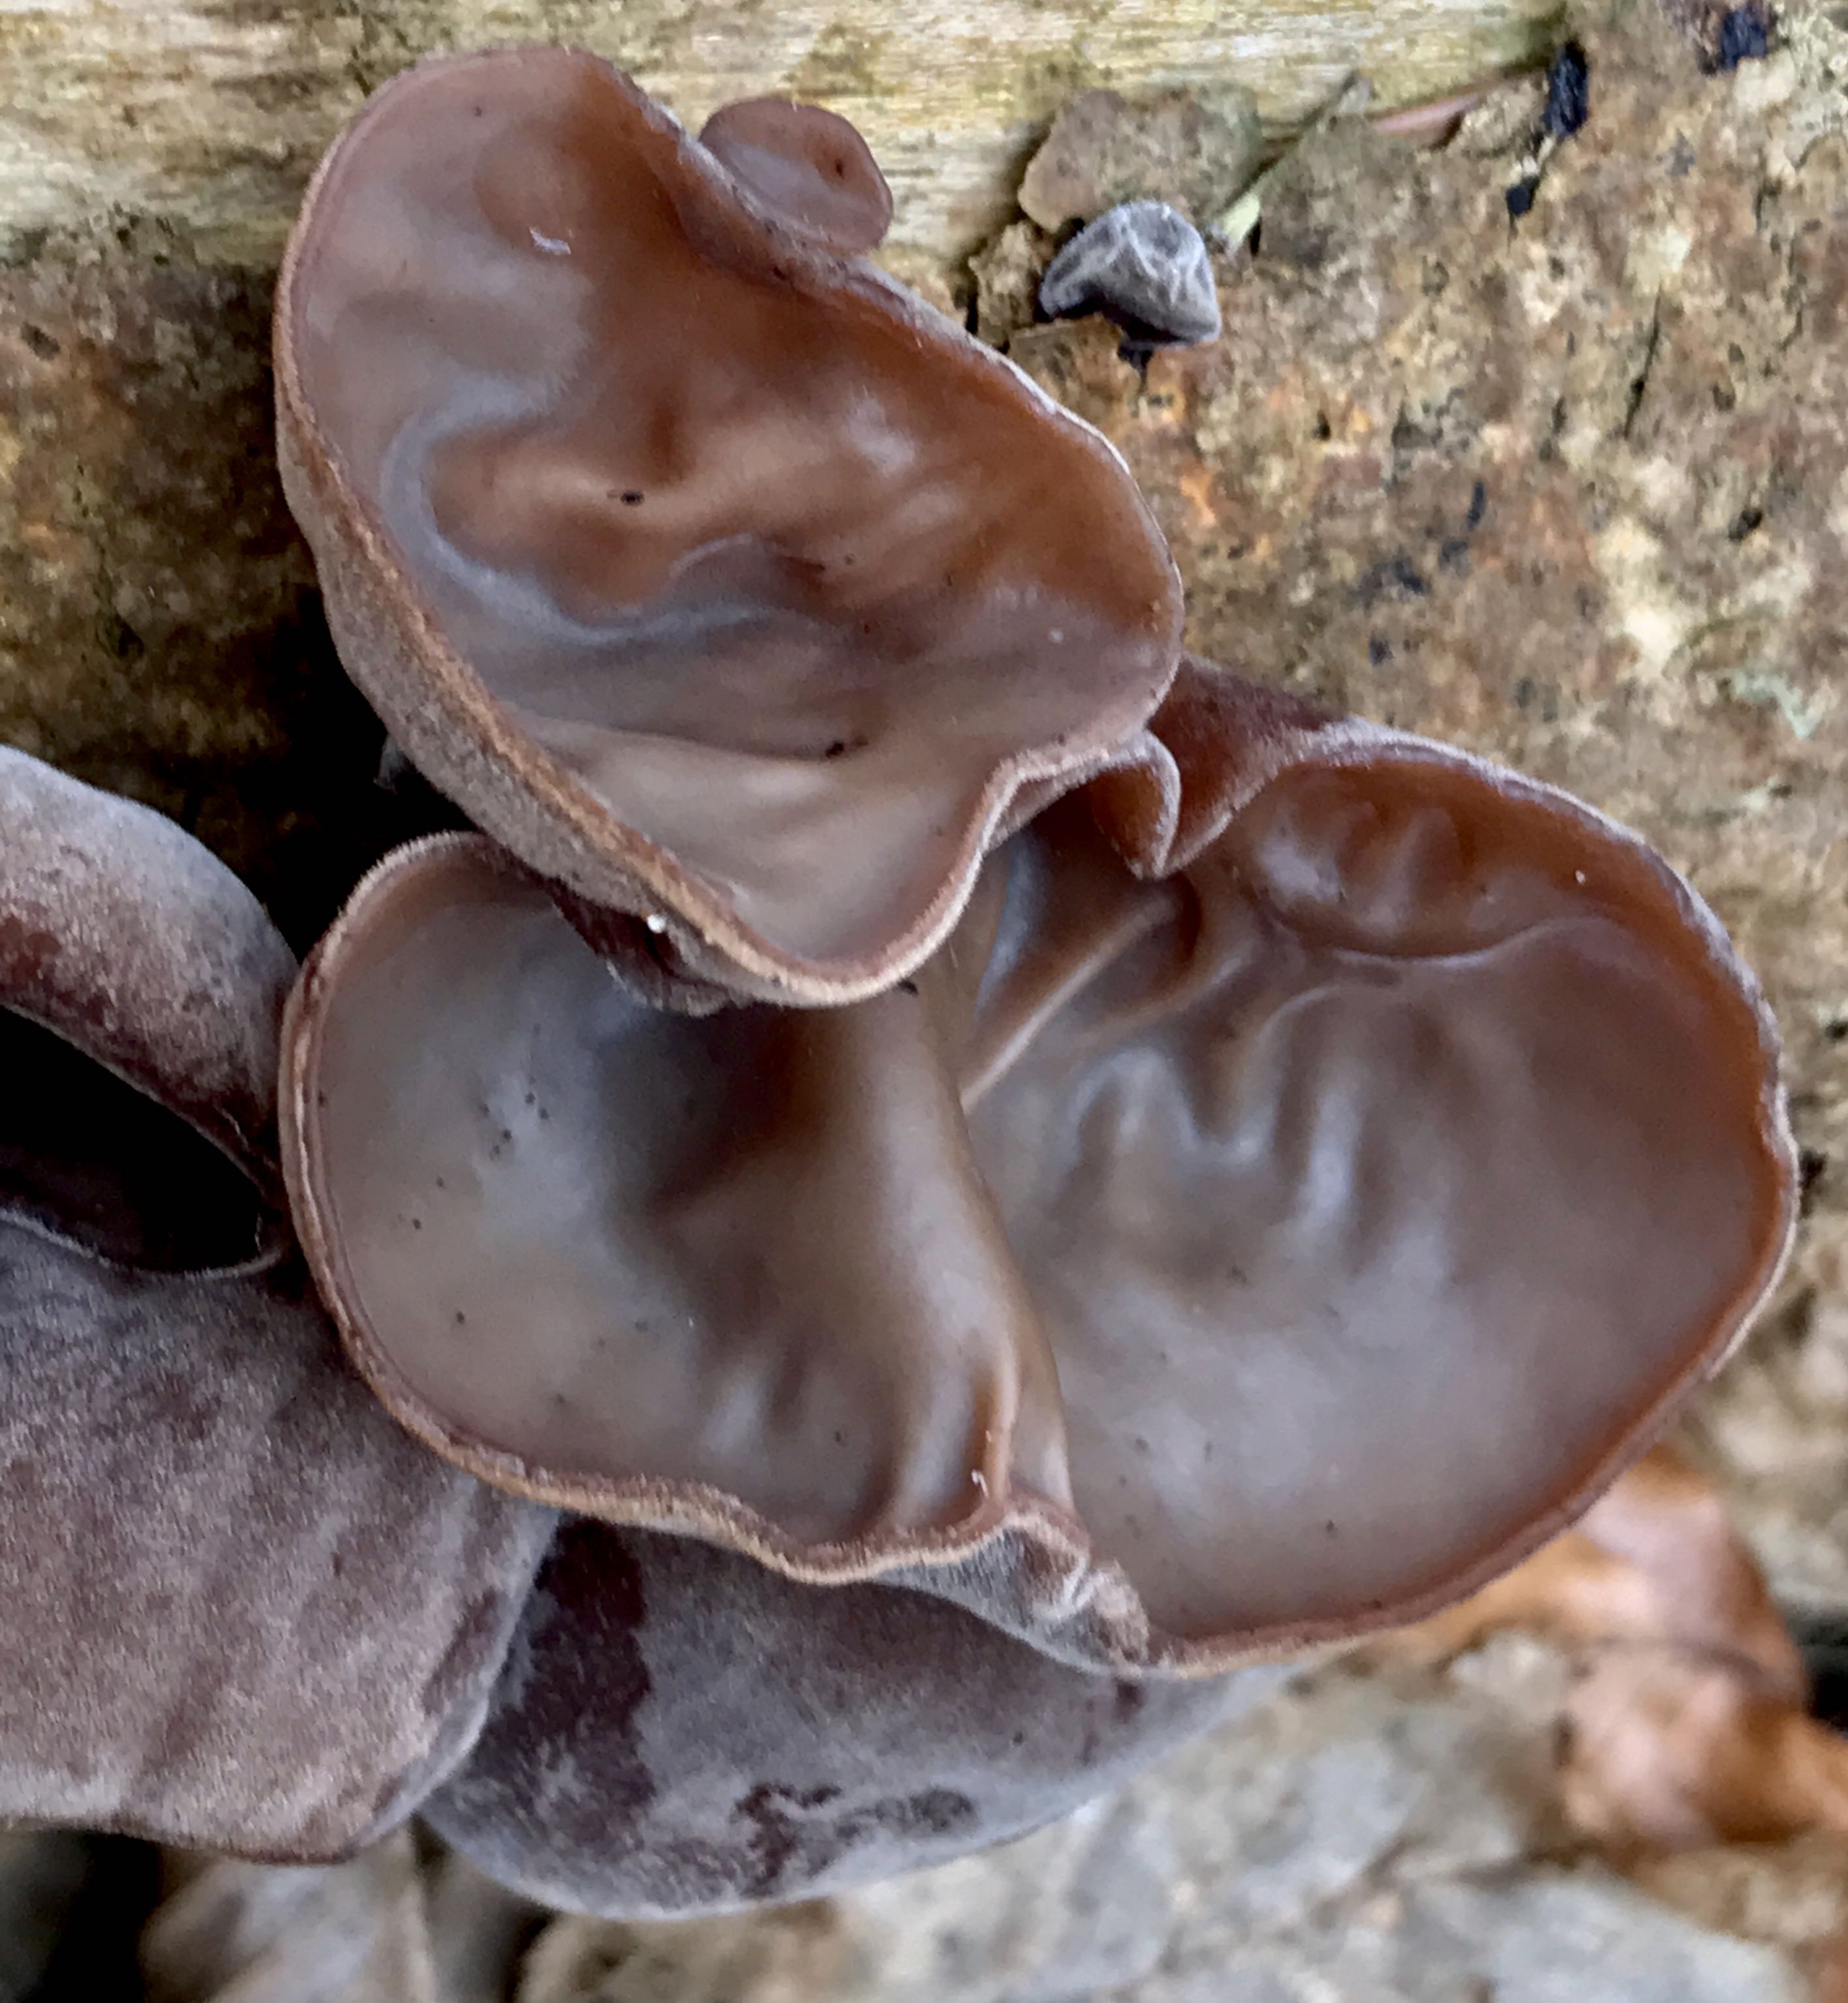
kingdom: Fungi
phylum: Basidiomycota
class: Agaricomycetes
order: Auriculariales
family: Auriculariaceae
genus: Auricularia
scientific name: Auricularia auricula-judae
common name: almindelig judasøre
